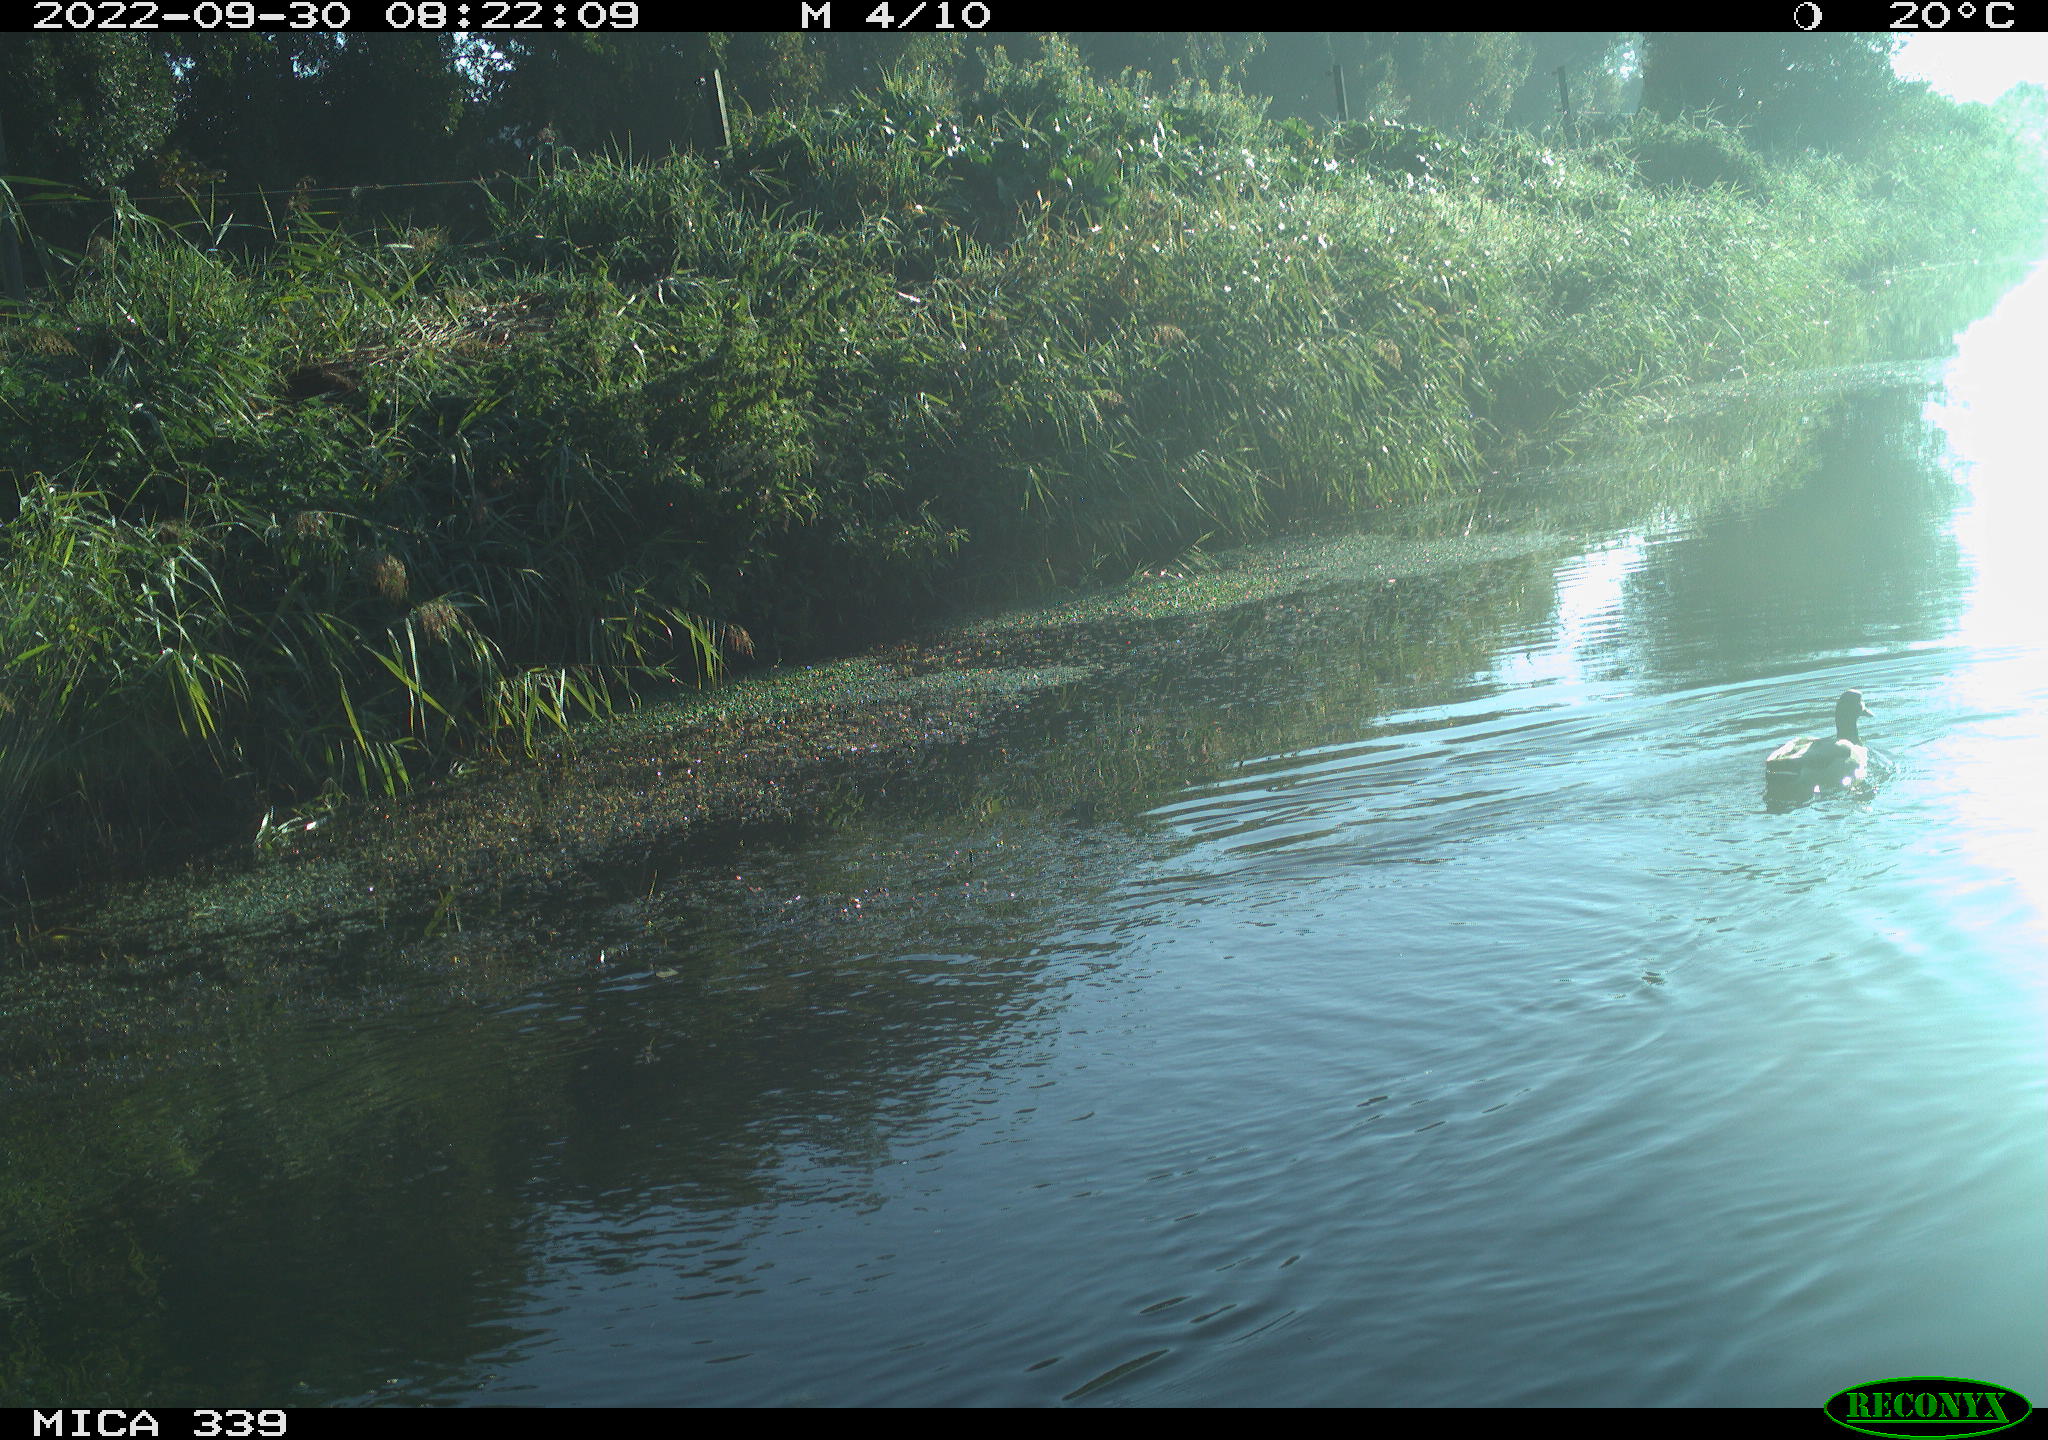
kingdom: Animalia
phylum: Chordata
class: Aves
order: Anseriformes
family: Anatidae
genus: Anas
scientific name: Anas platyrhynchos
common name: Mallard
